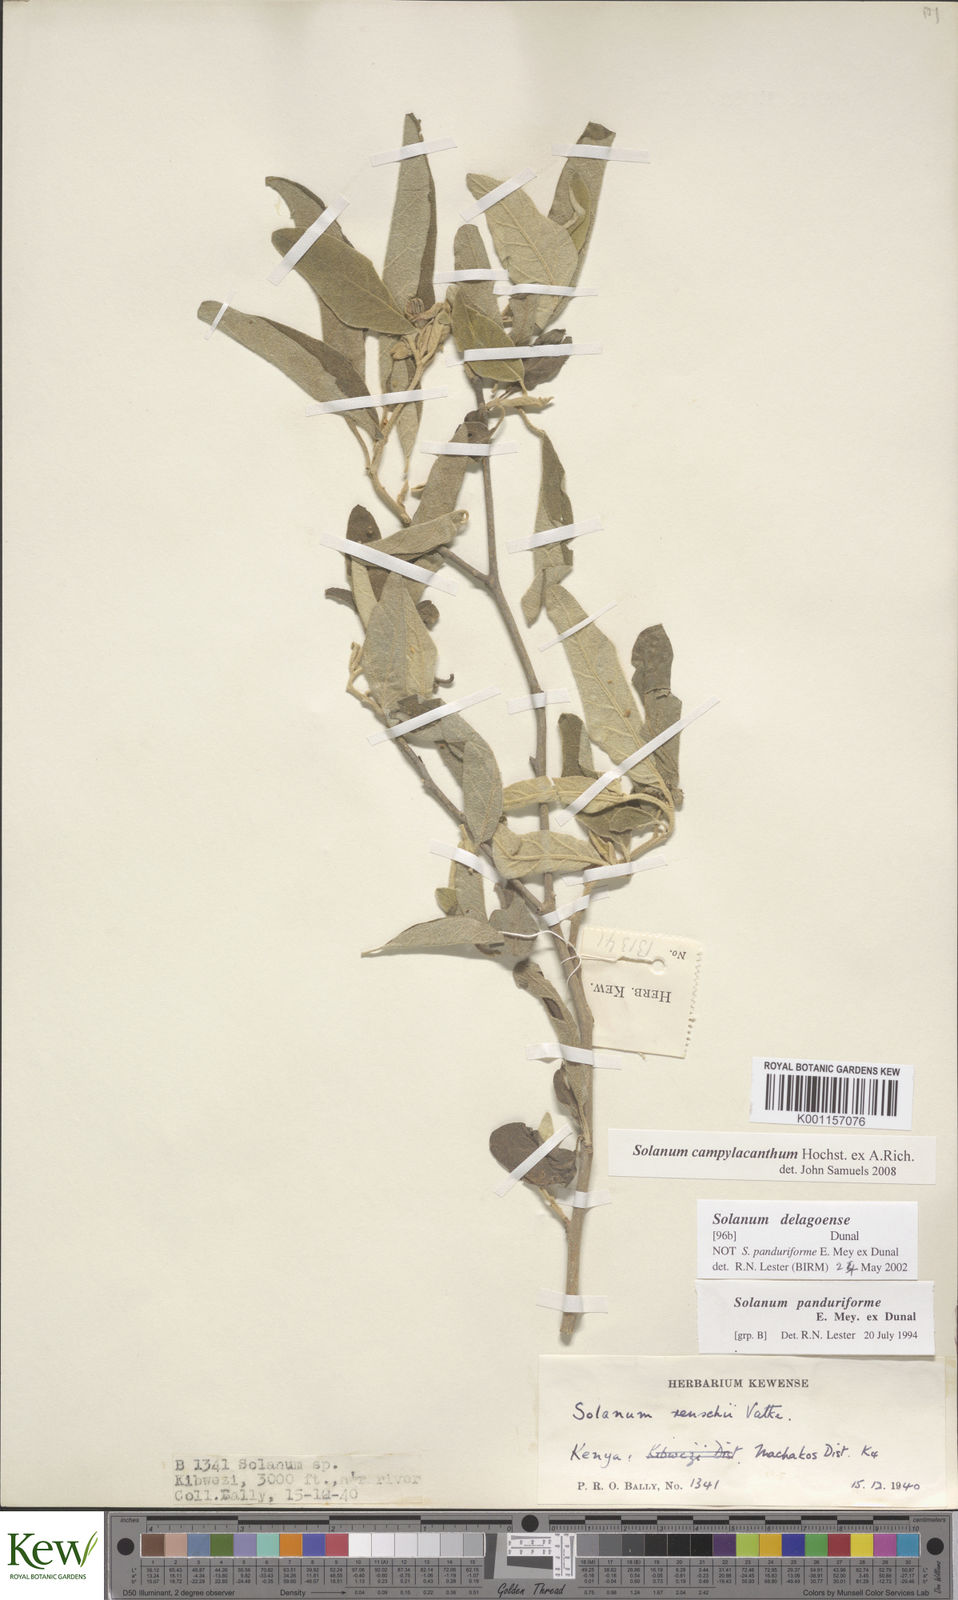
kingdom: Plantae
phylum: Tracheophyta
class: Magnoliopsida
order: Solanales
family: Solanaceae
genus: Solanum
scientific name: Solanum campylacanthum
